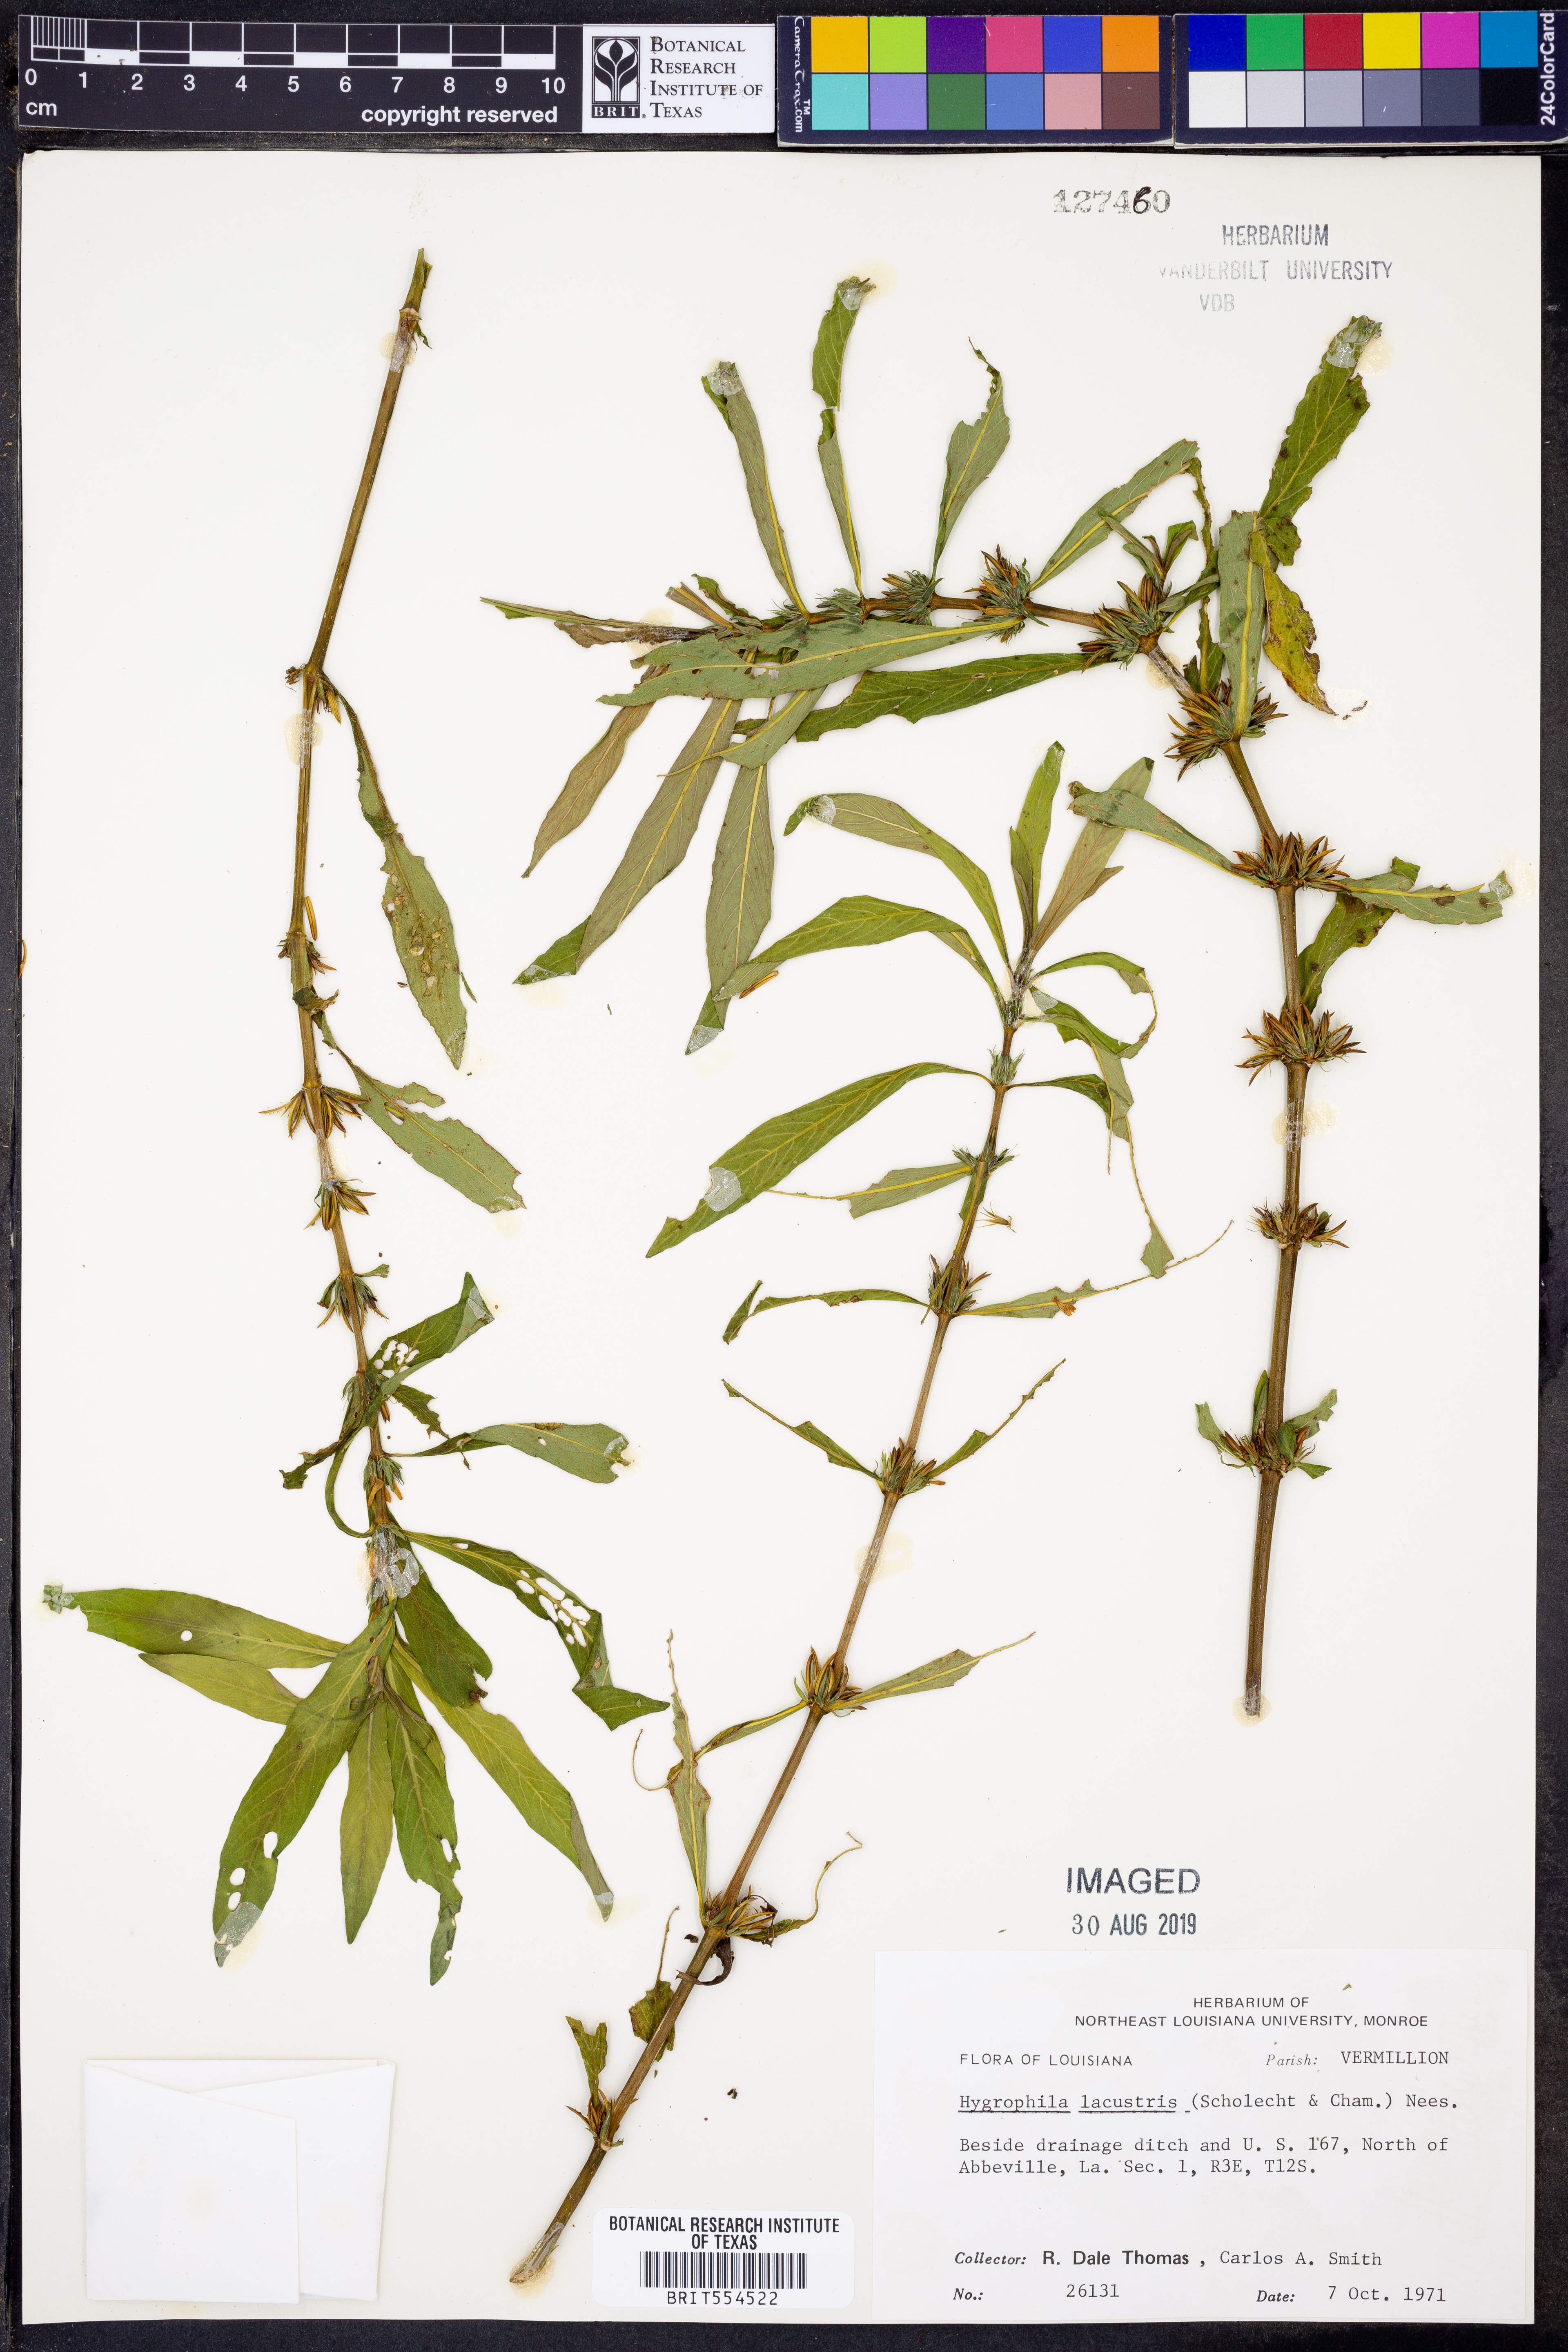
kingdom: Plantae
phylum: Tracheophyta
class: Magnoliopsida
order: Lamiales
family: Acanthaceae
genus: Hygrophila
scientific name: Hygrophila costata
